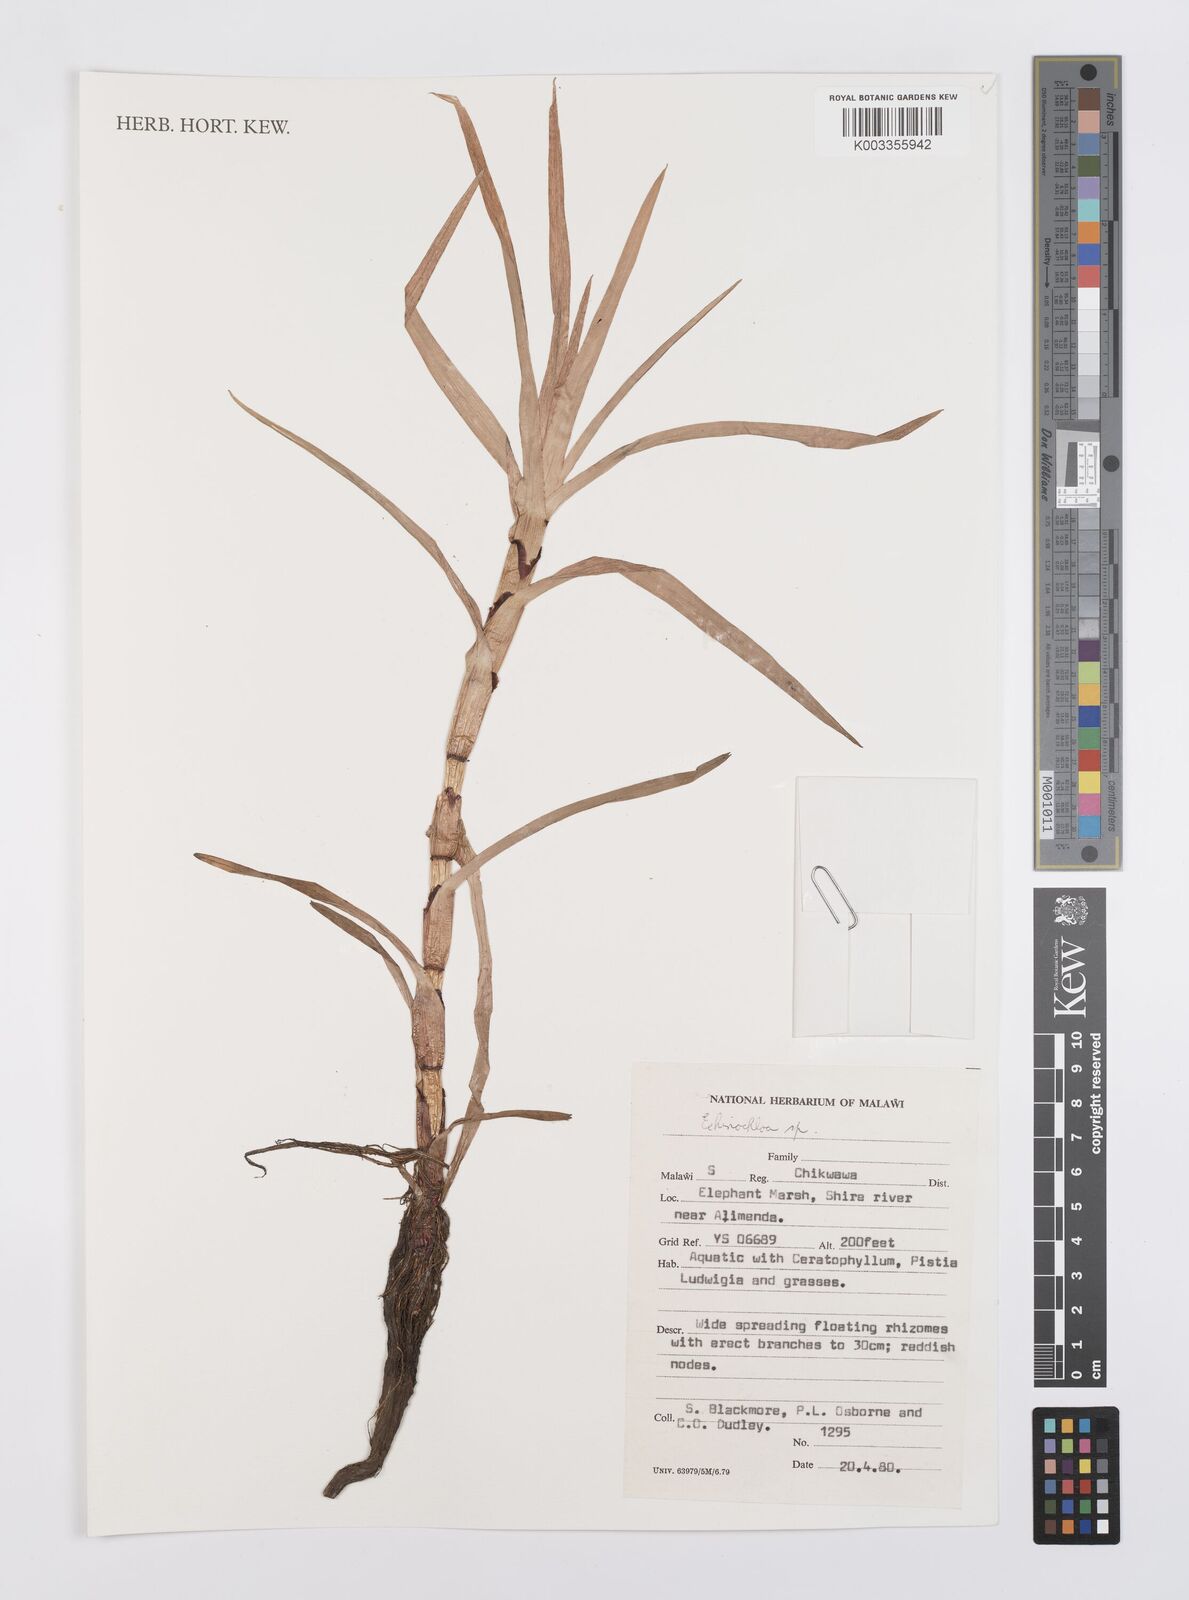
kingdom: Plantae
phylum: Tracheophyta
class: Liliopsida
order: Poales
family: Poaceae
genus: Echinochloa
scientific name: Echinochloa
